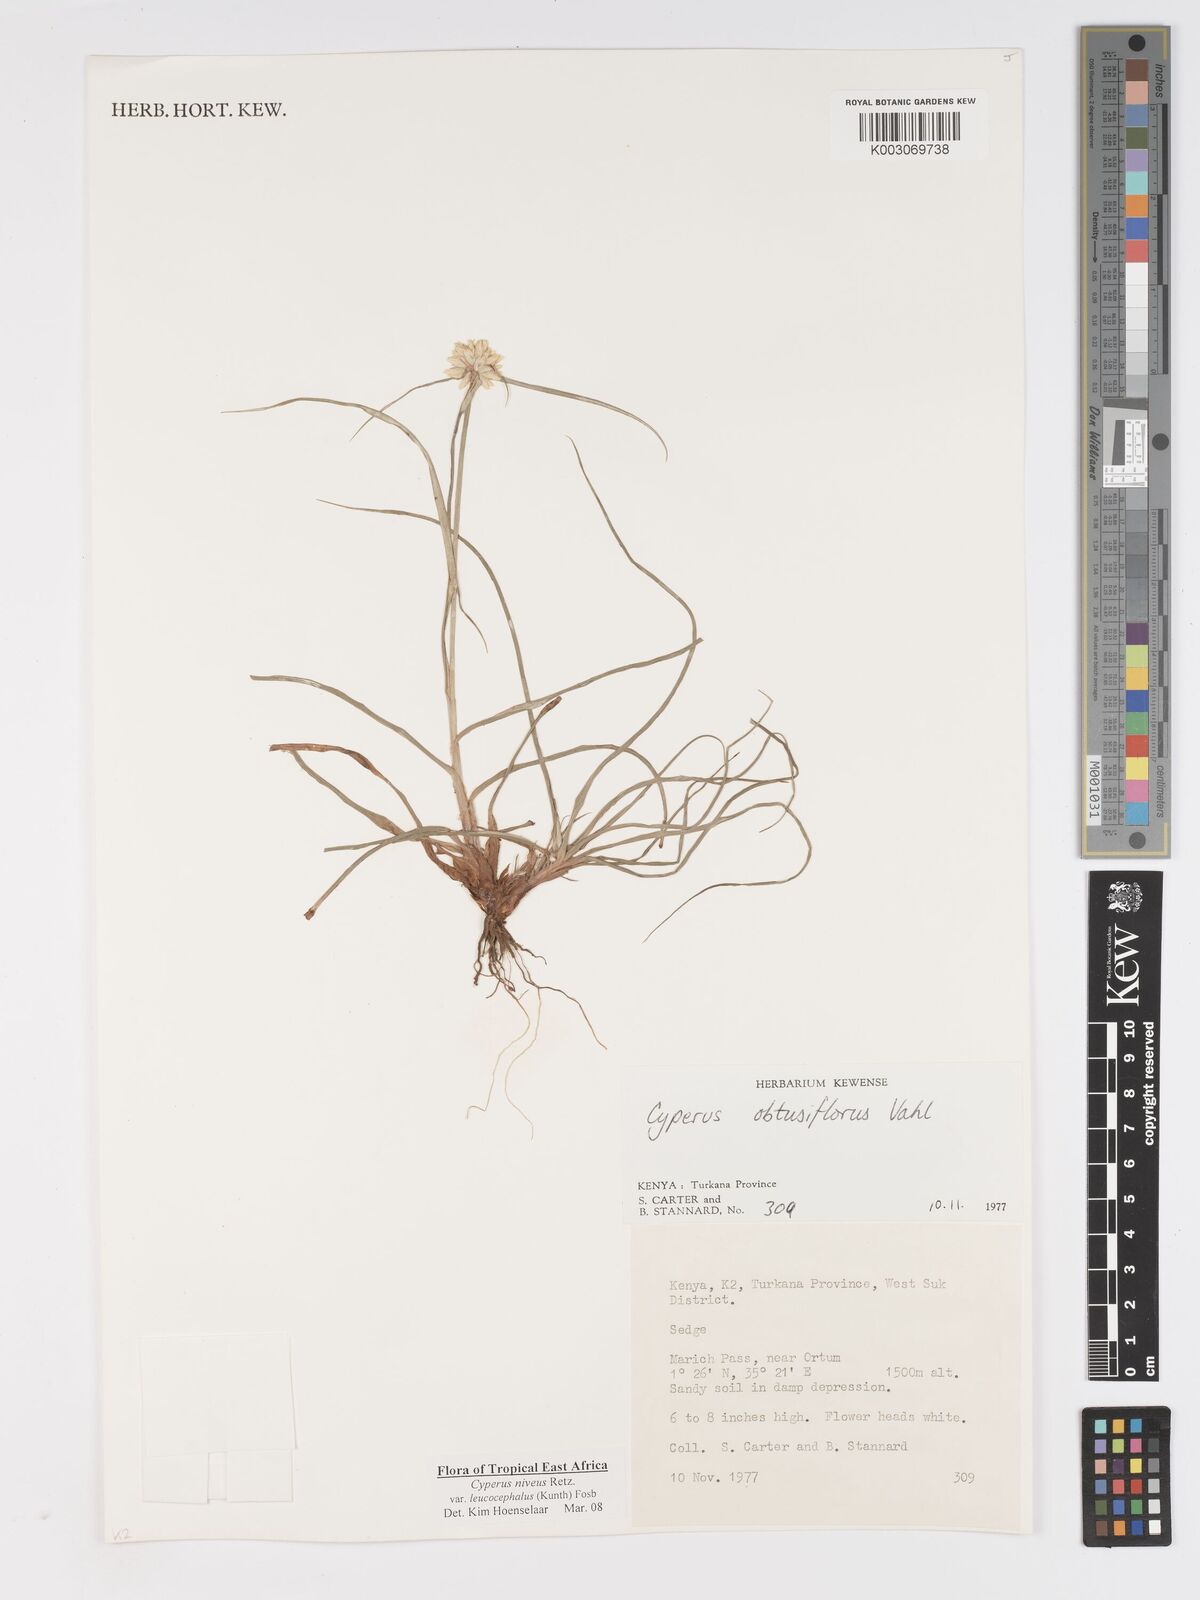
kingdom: Plantae
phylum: Tracheophyta
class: Liliopsida
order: Poales
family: Cyperaceae
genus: Cyperus
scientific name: Cyperus niveus
